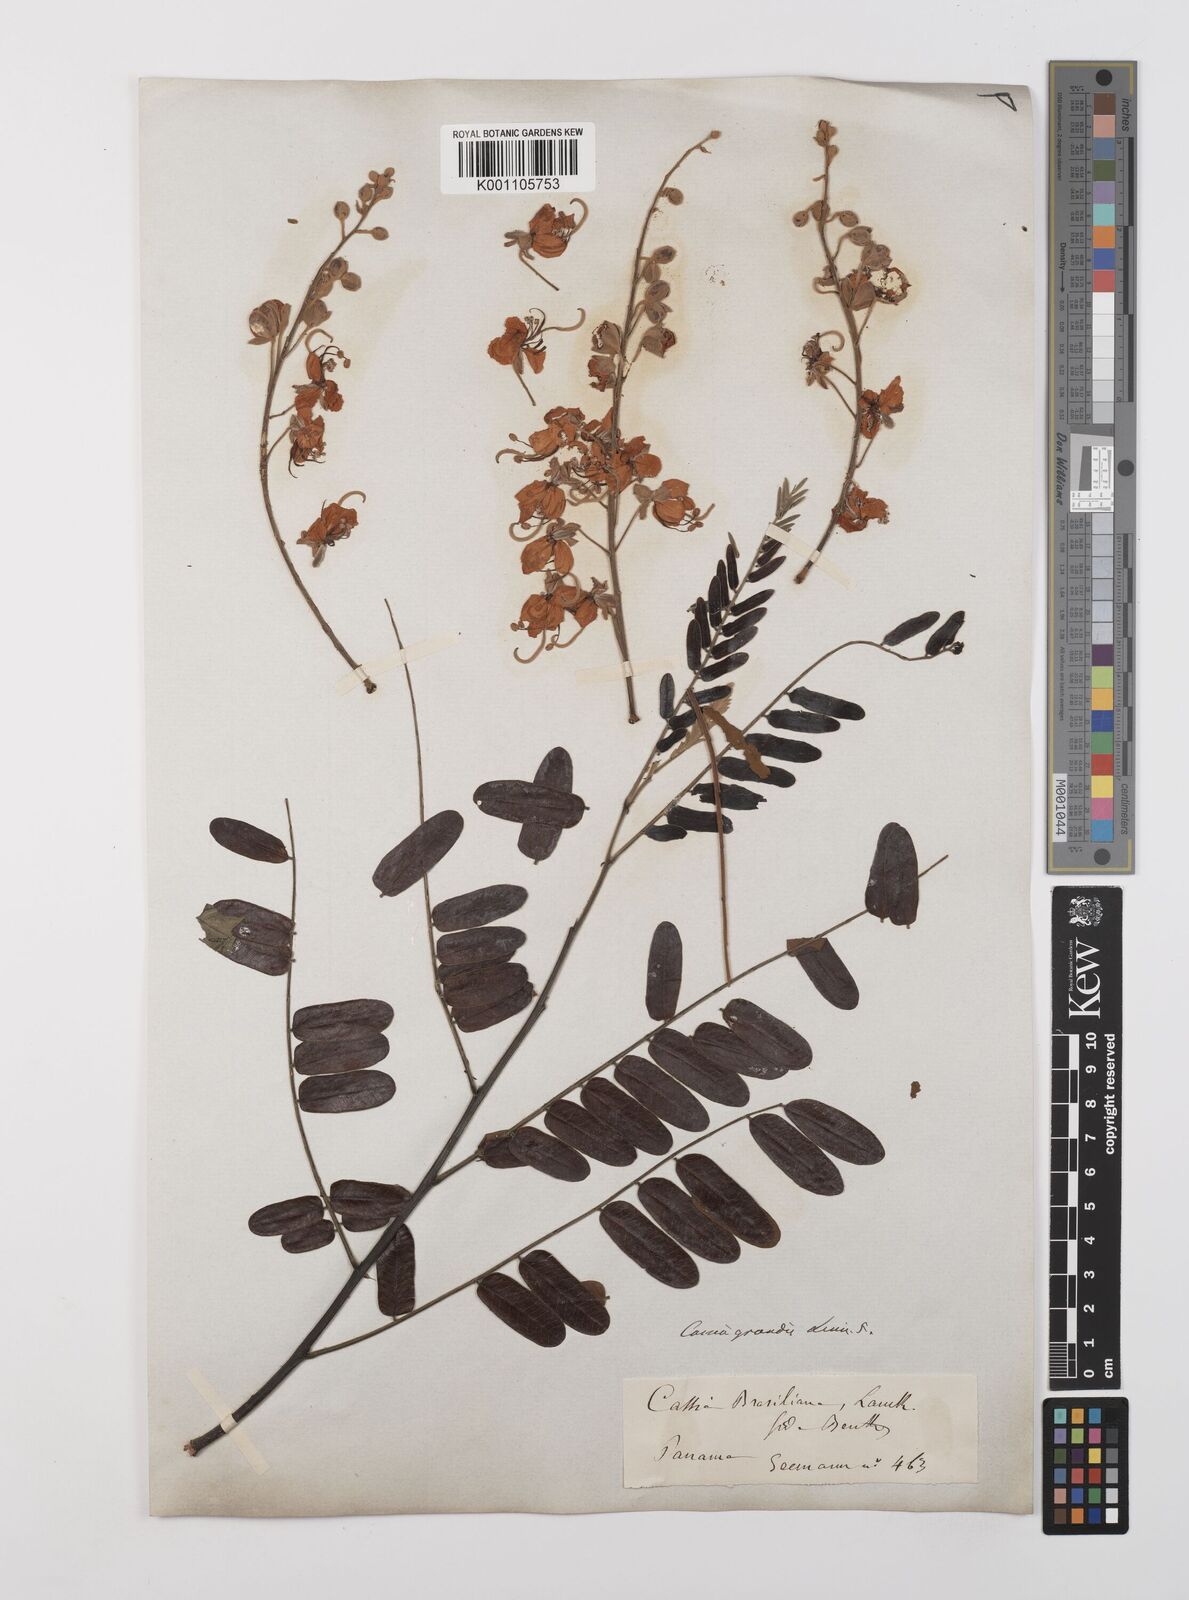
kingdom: Plantae
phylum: Tracheophyta
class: Magnoliopsida
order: Fabales
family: Fabaceae
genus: Cassia
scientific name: Cassia grandis
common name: Appleblossom cassia
